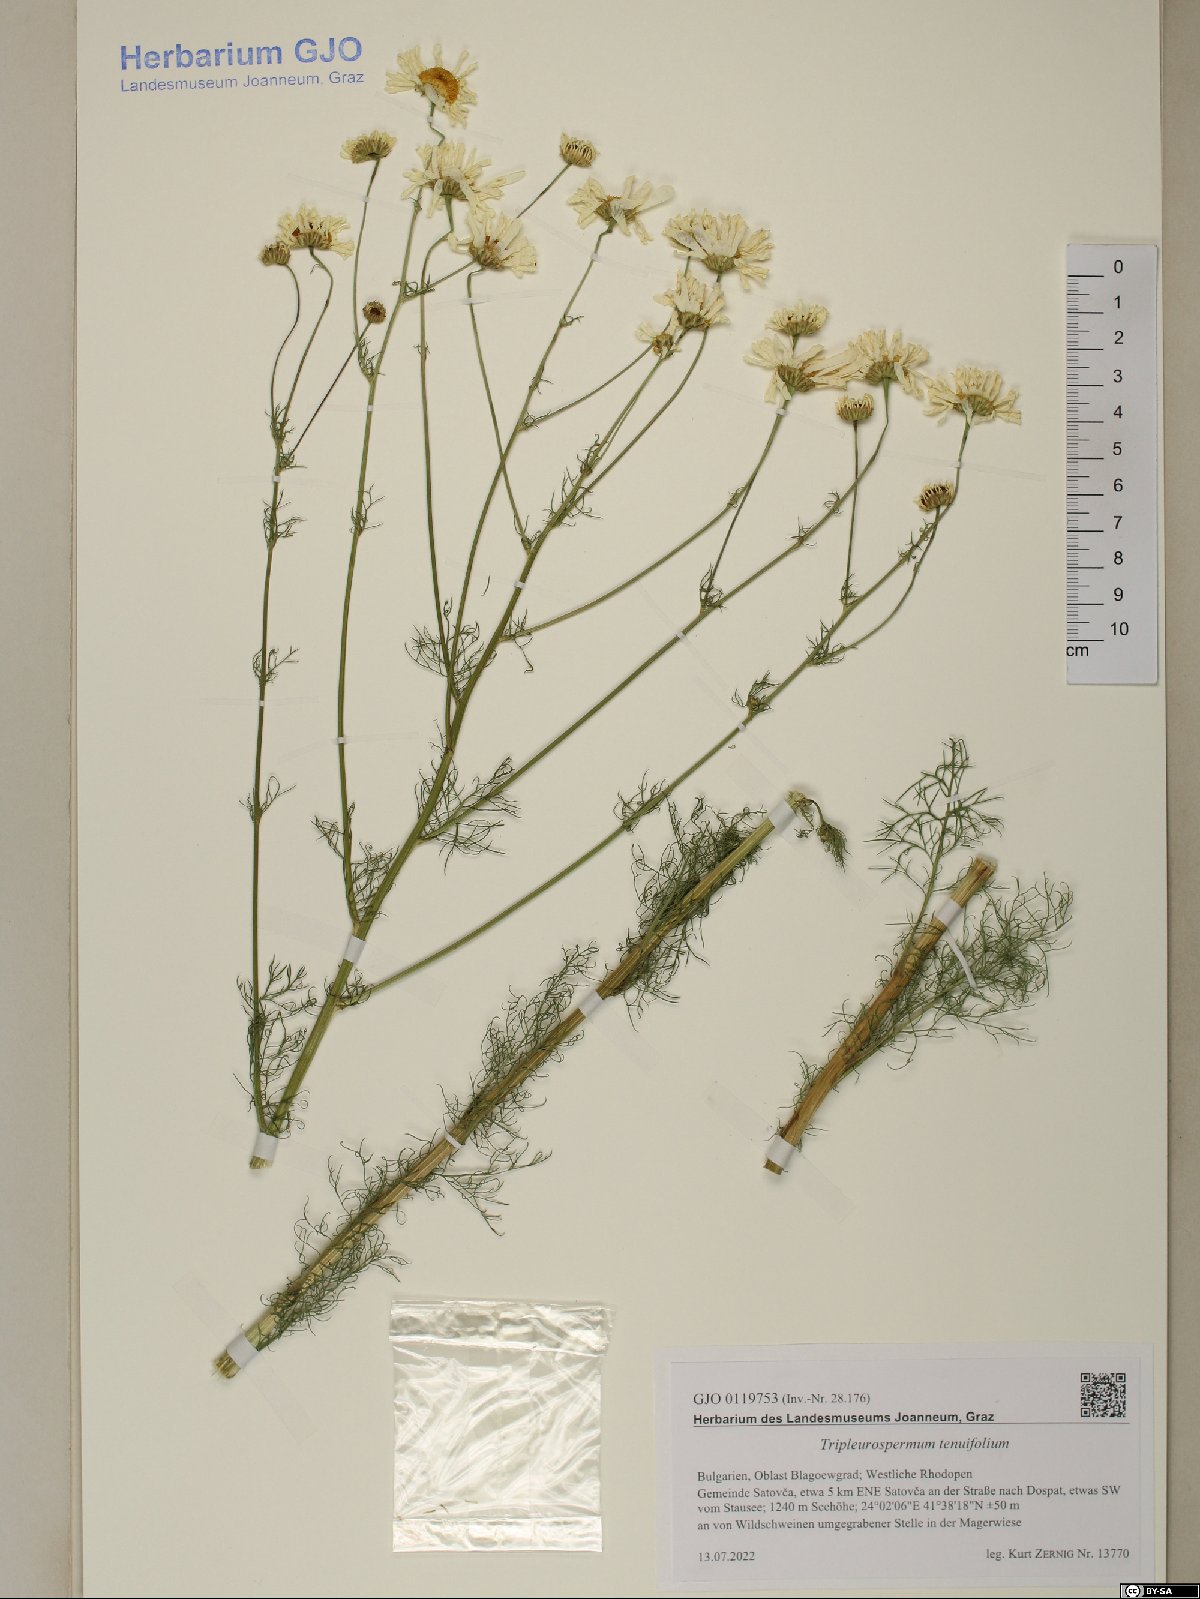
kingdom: Plantae
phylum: Tracheophyta
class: Magnoliopsida
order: Asterales
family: Asteraceae
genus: Tripleurospermum
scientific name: Tripleurospermum tenuifolium
